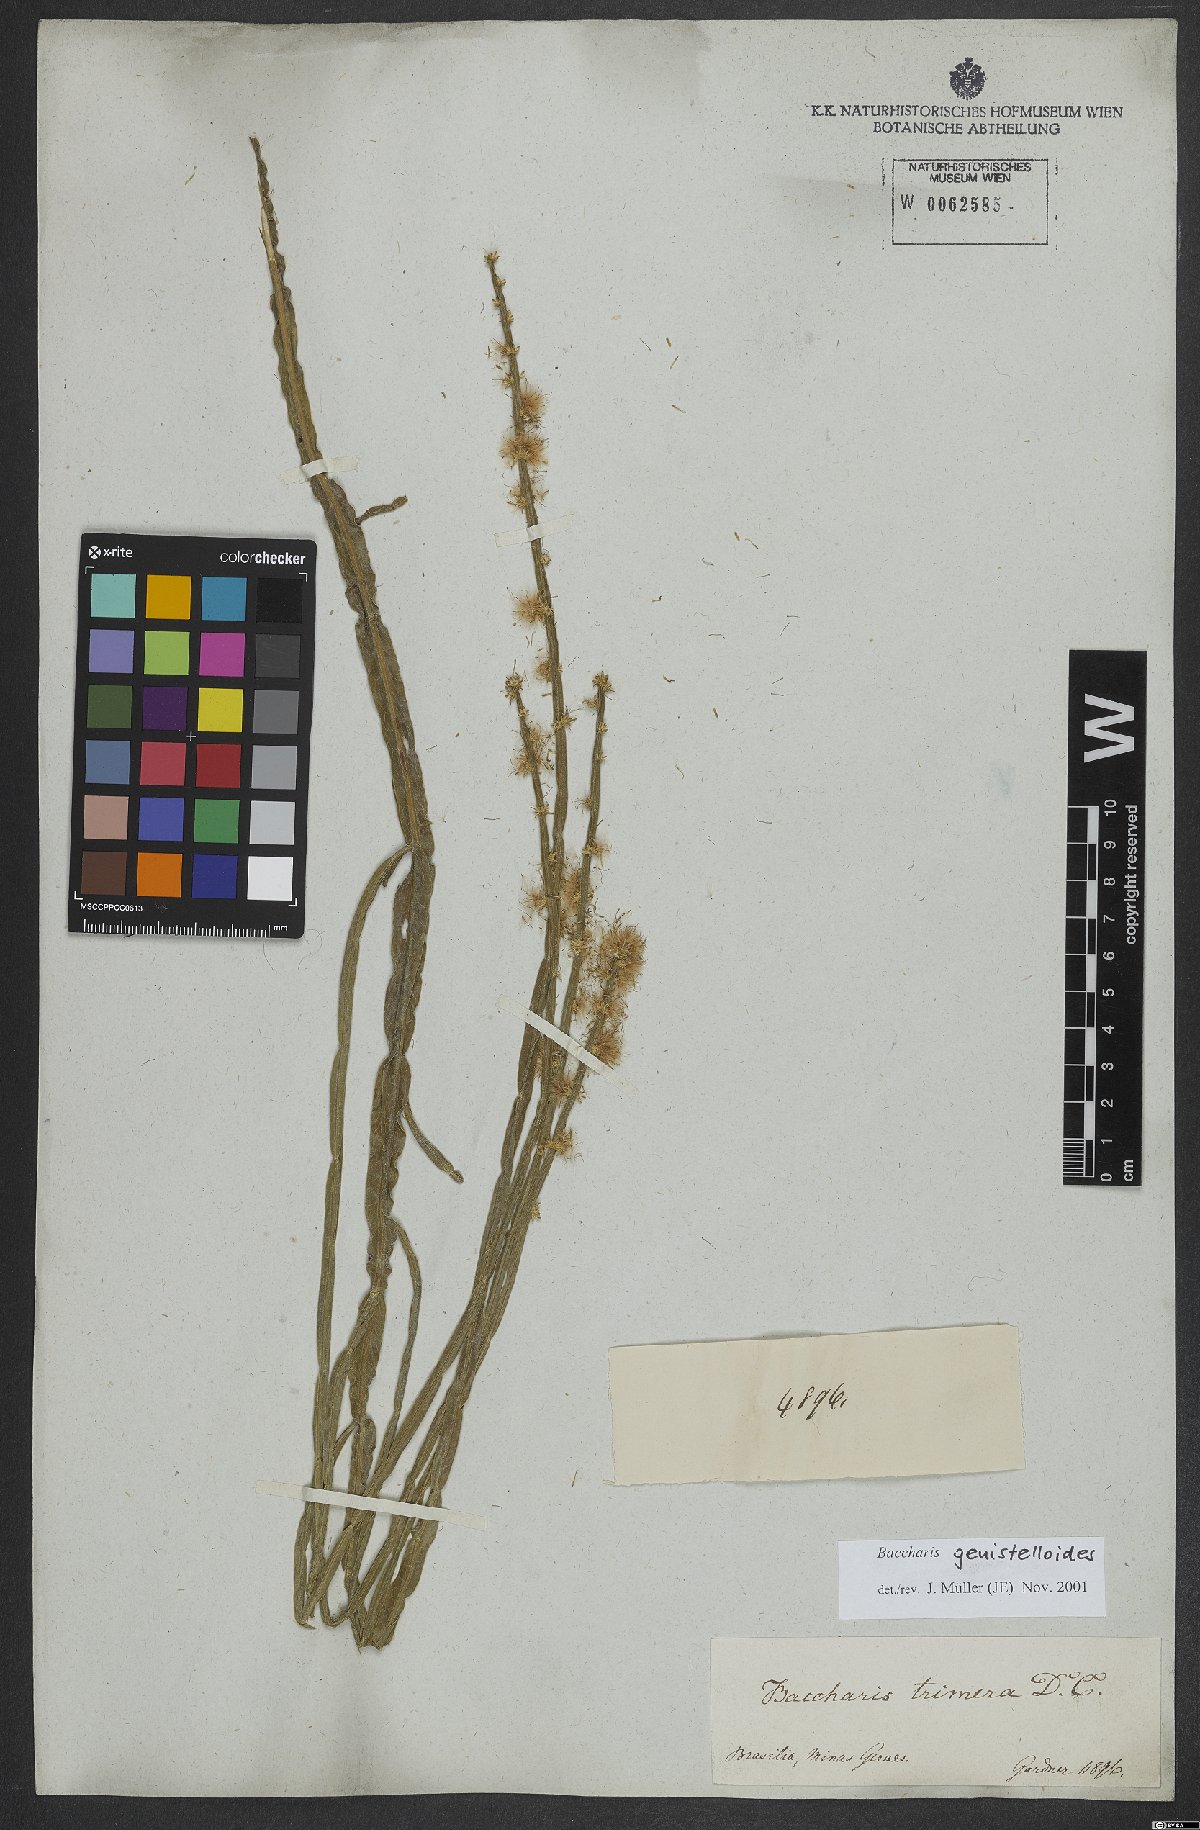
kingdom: Plantae
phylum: Tracheophyta
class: Magnoliopsida
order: Asterales
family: Asteraceae
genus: Baccharis
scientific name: Baccharis genistelloides
